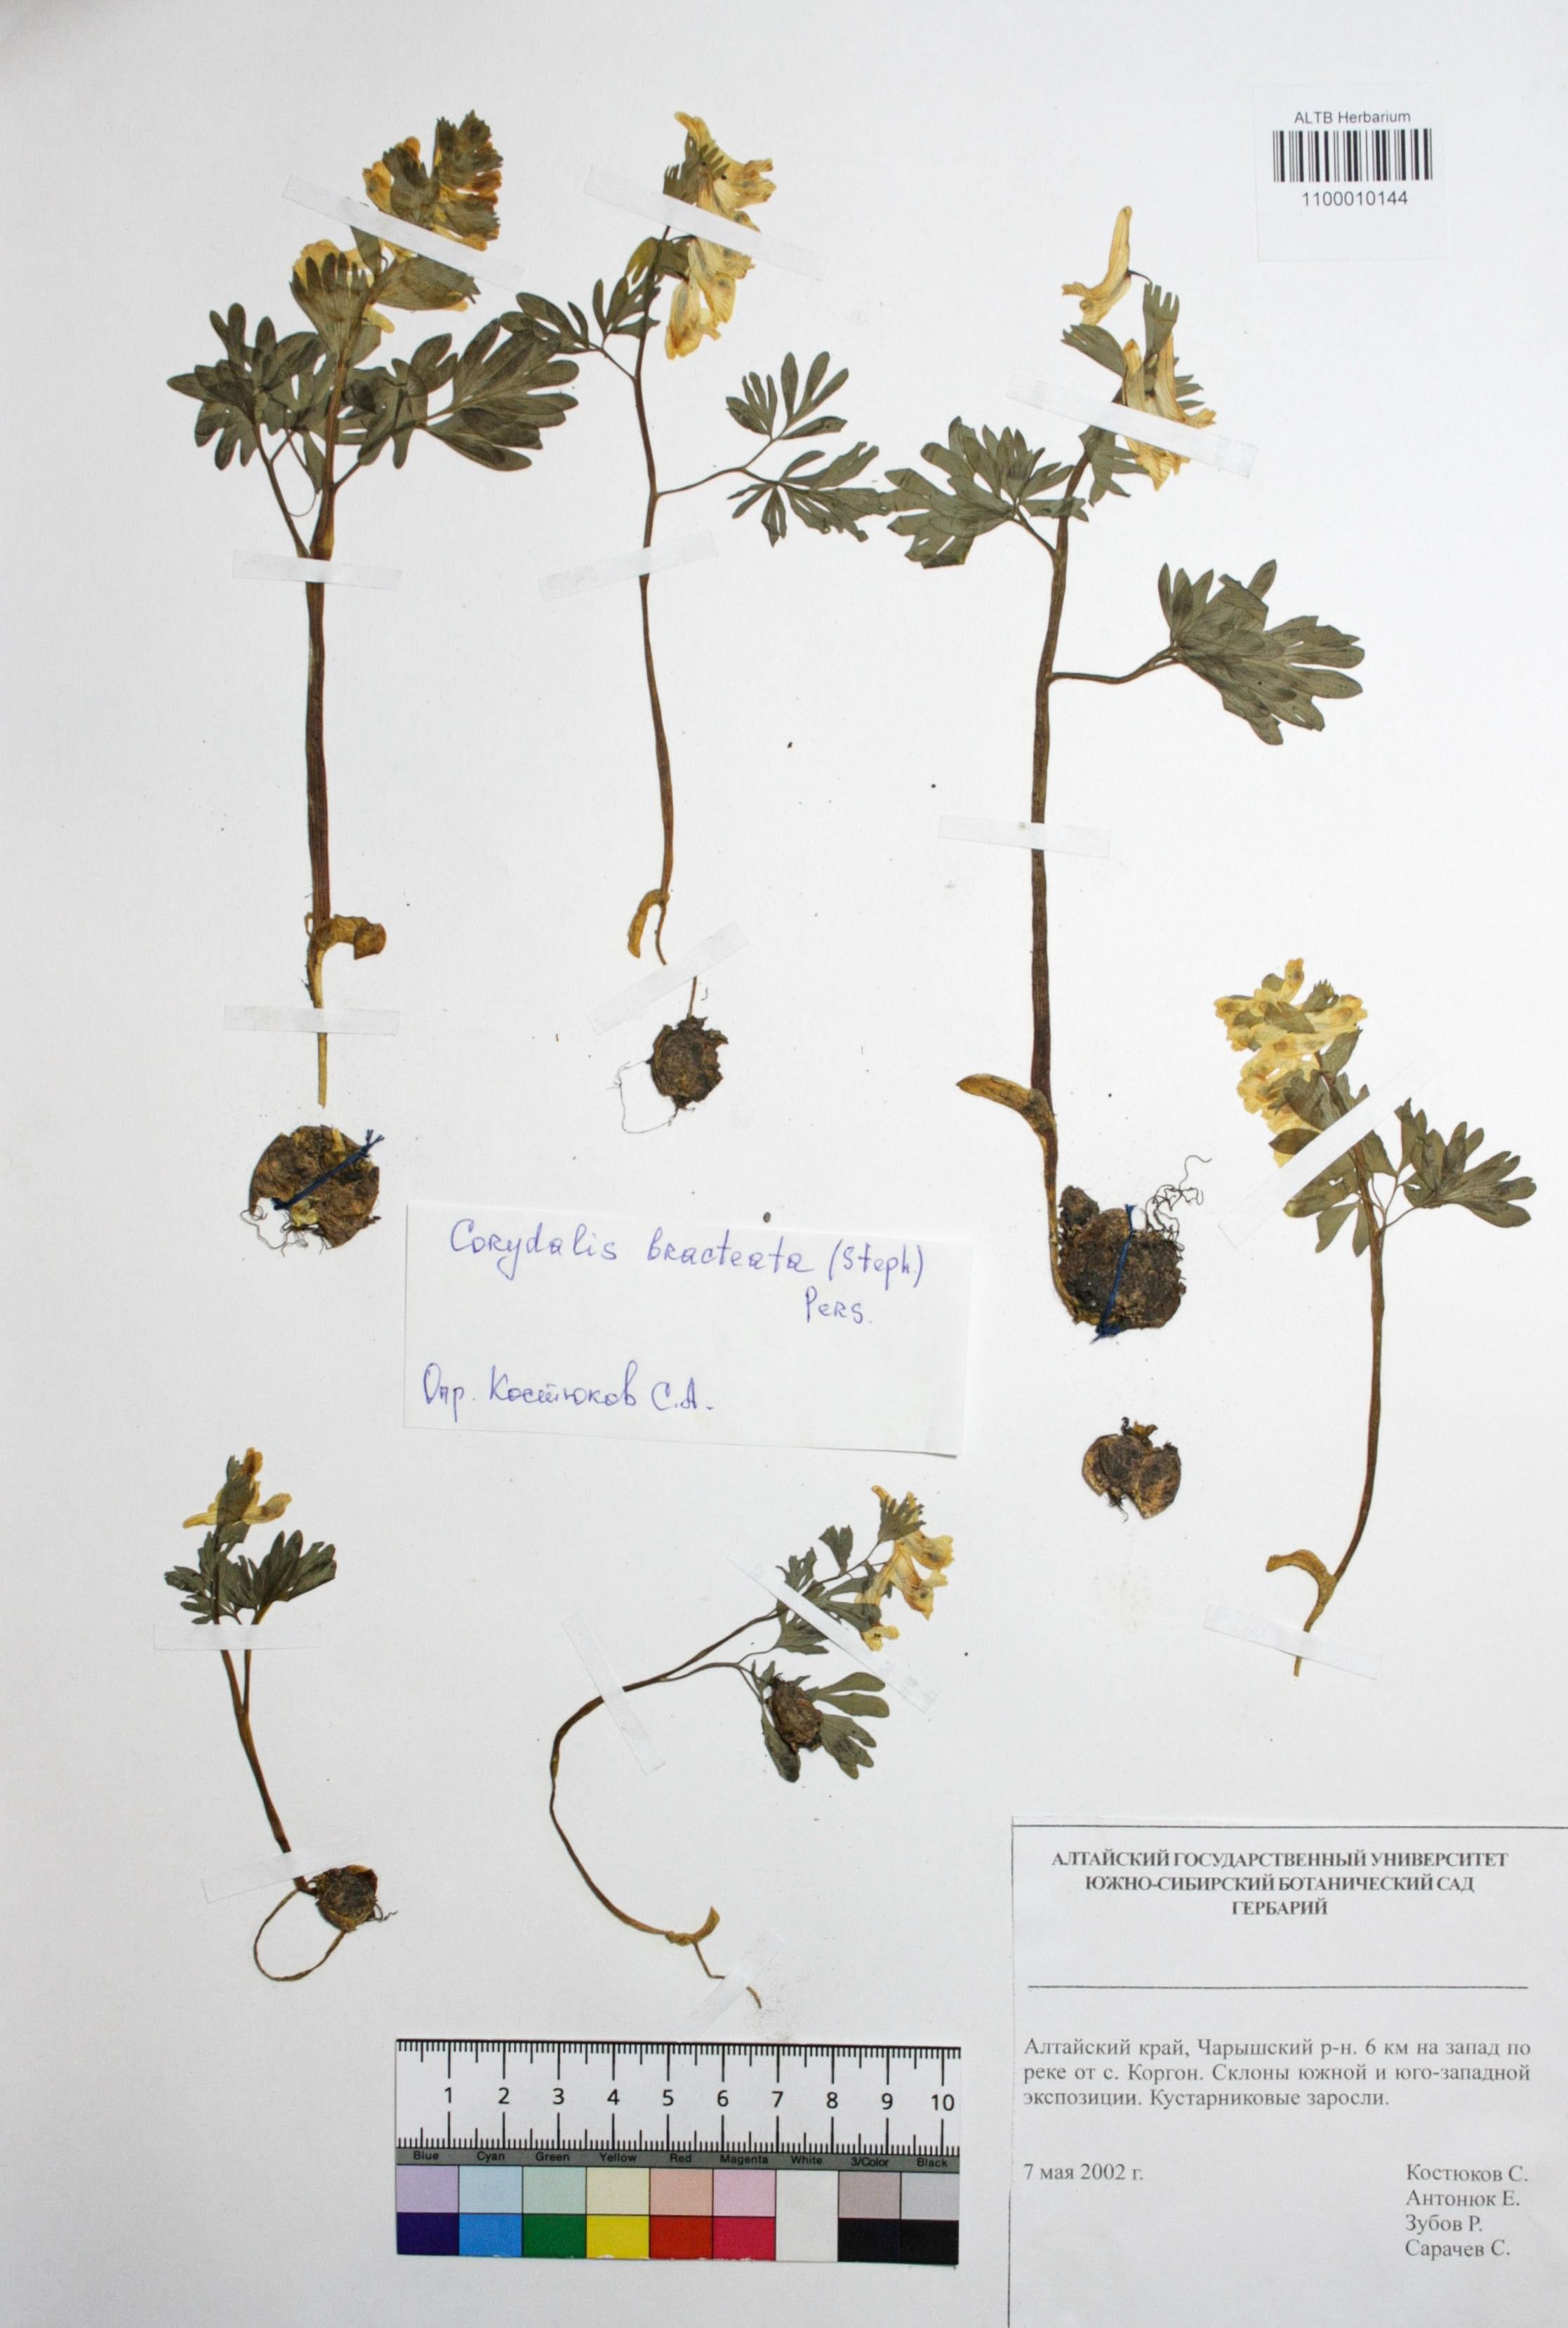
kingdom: Plantae
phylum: Tracheophyta
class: Magnoliopsida
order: Ranunculales
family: Papaveraceae
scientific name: Papaveraceae
